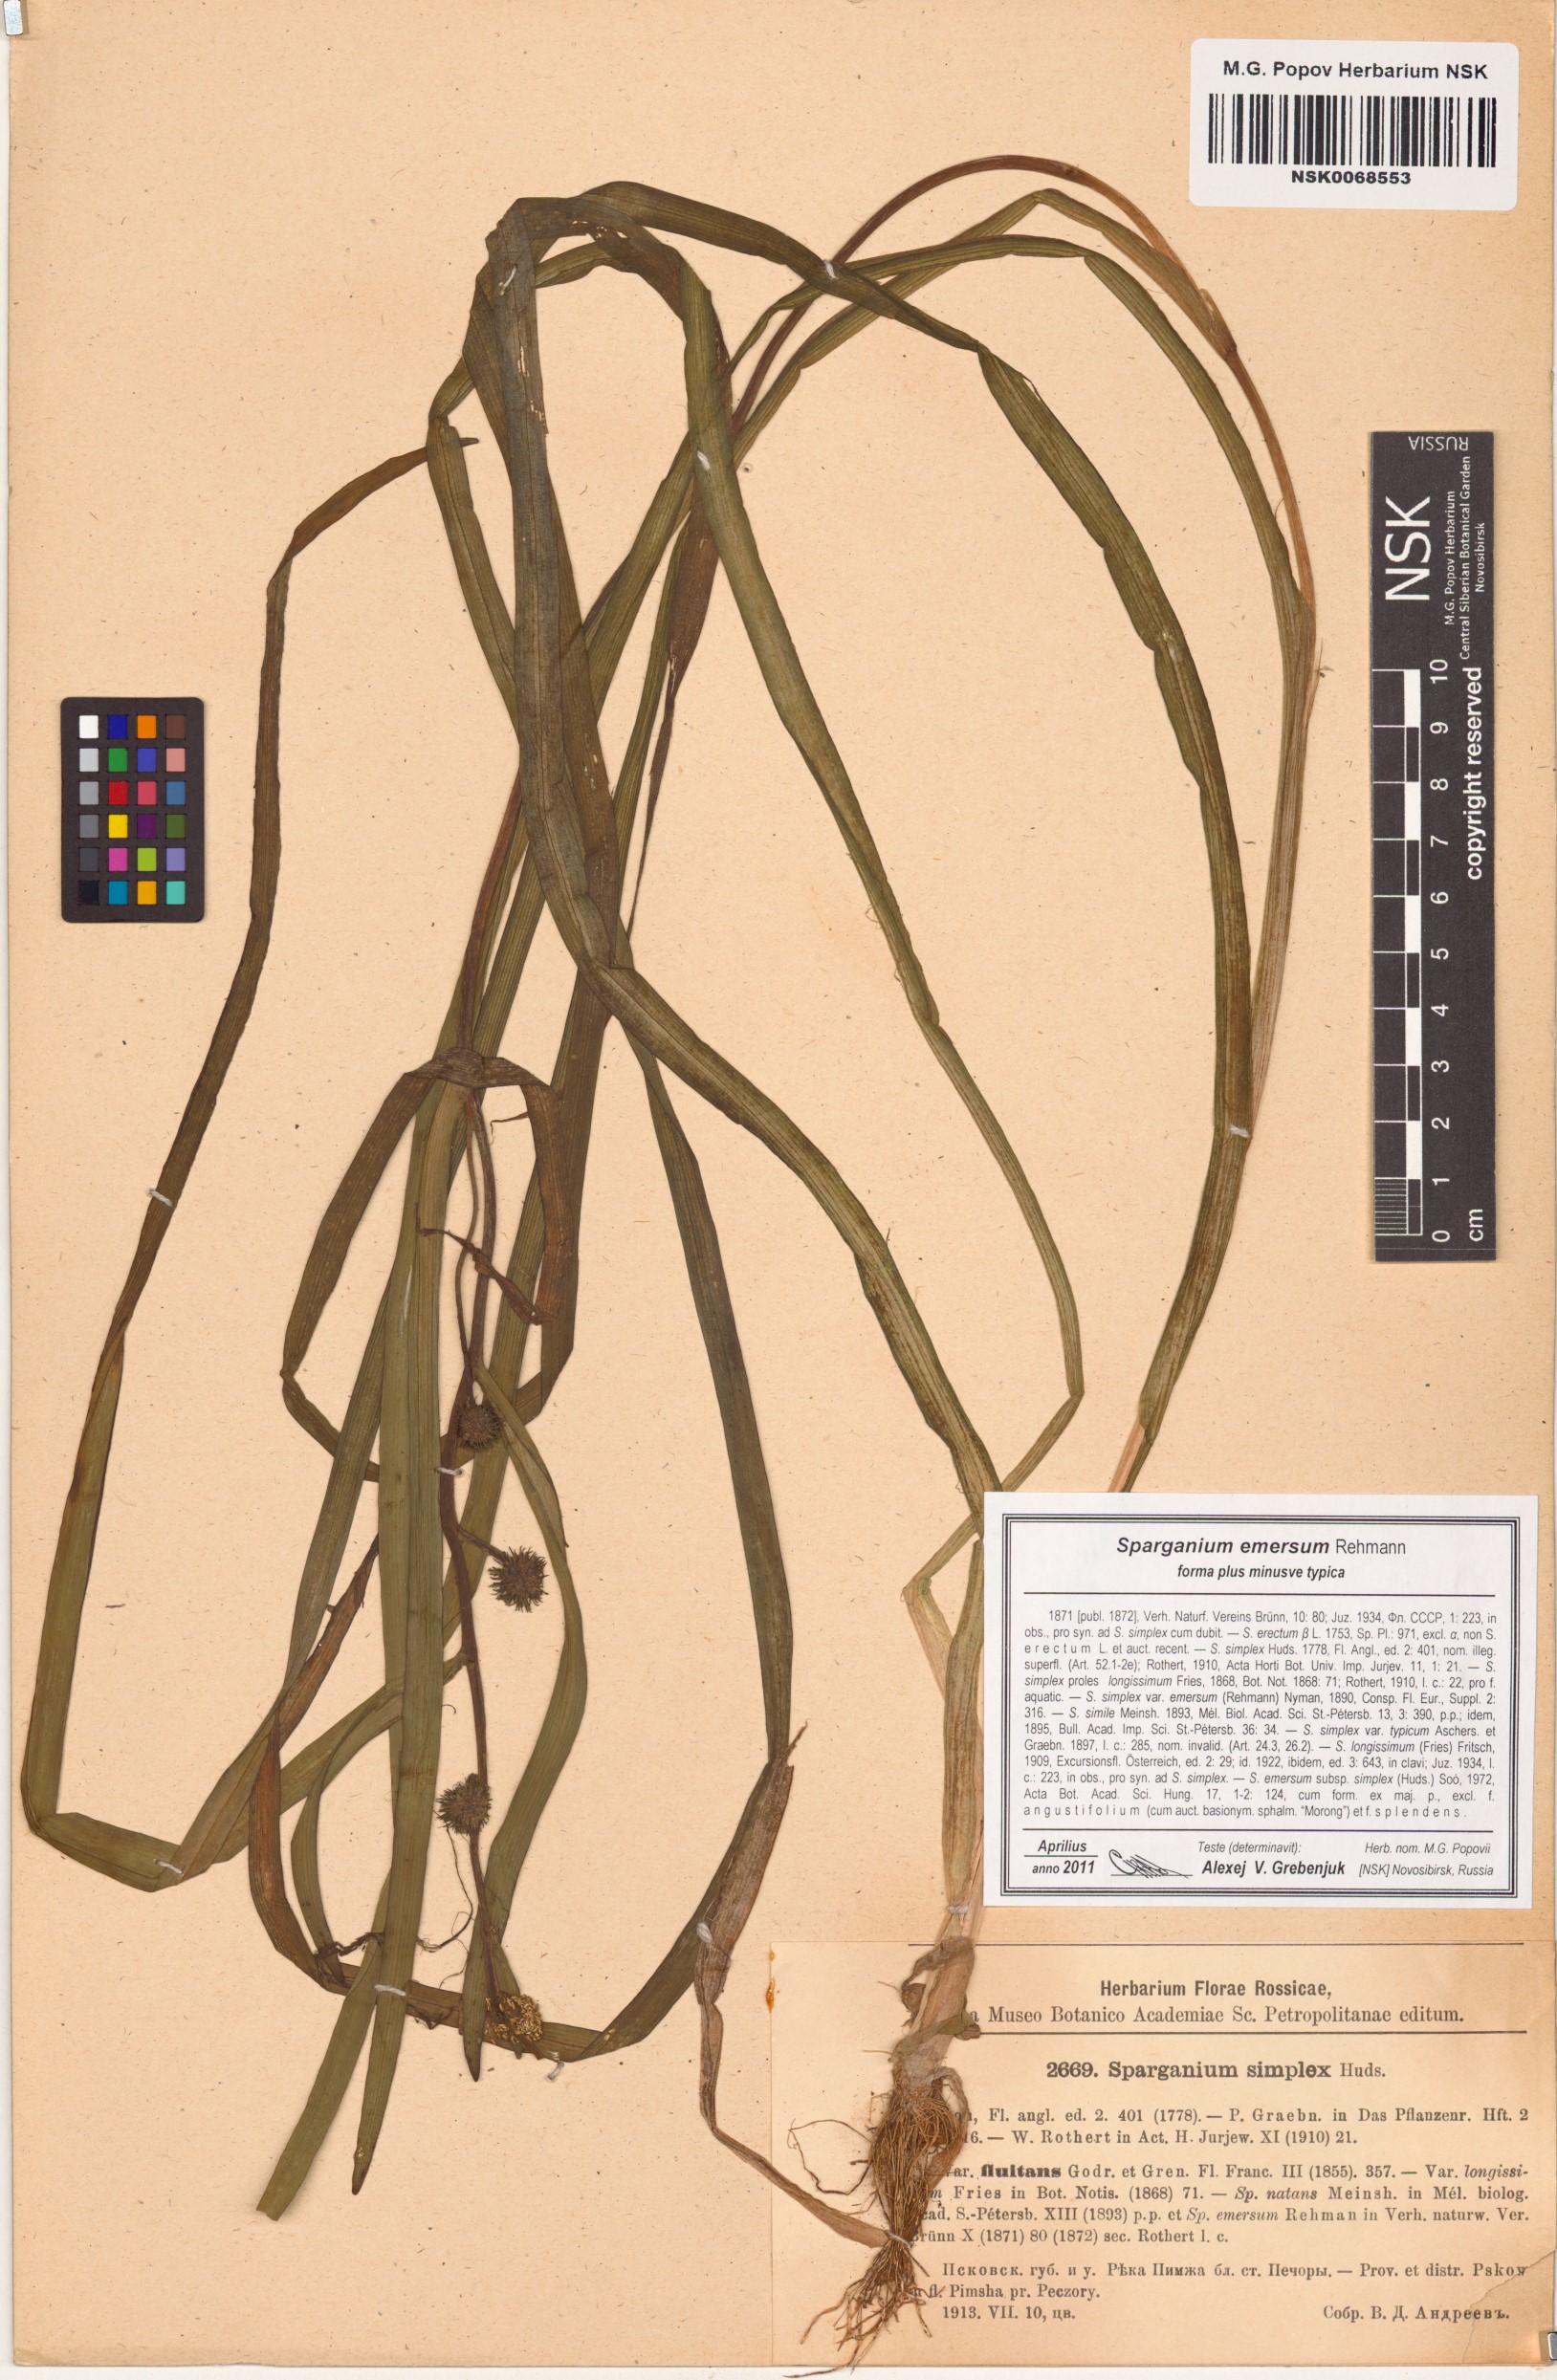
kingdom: Plantae
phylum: Tracheophyta
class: Liliopsida
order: Poales
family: Typhaceae
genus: Sparganium
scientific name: Sparganium emersum
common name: Unbranched bur-reed
